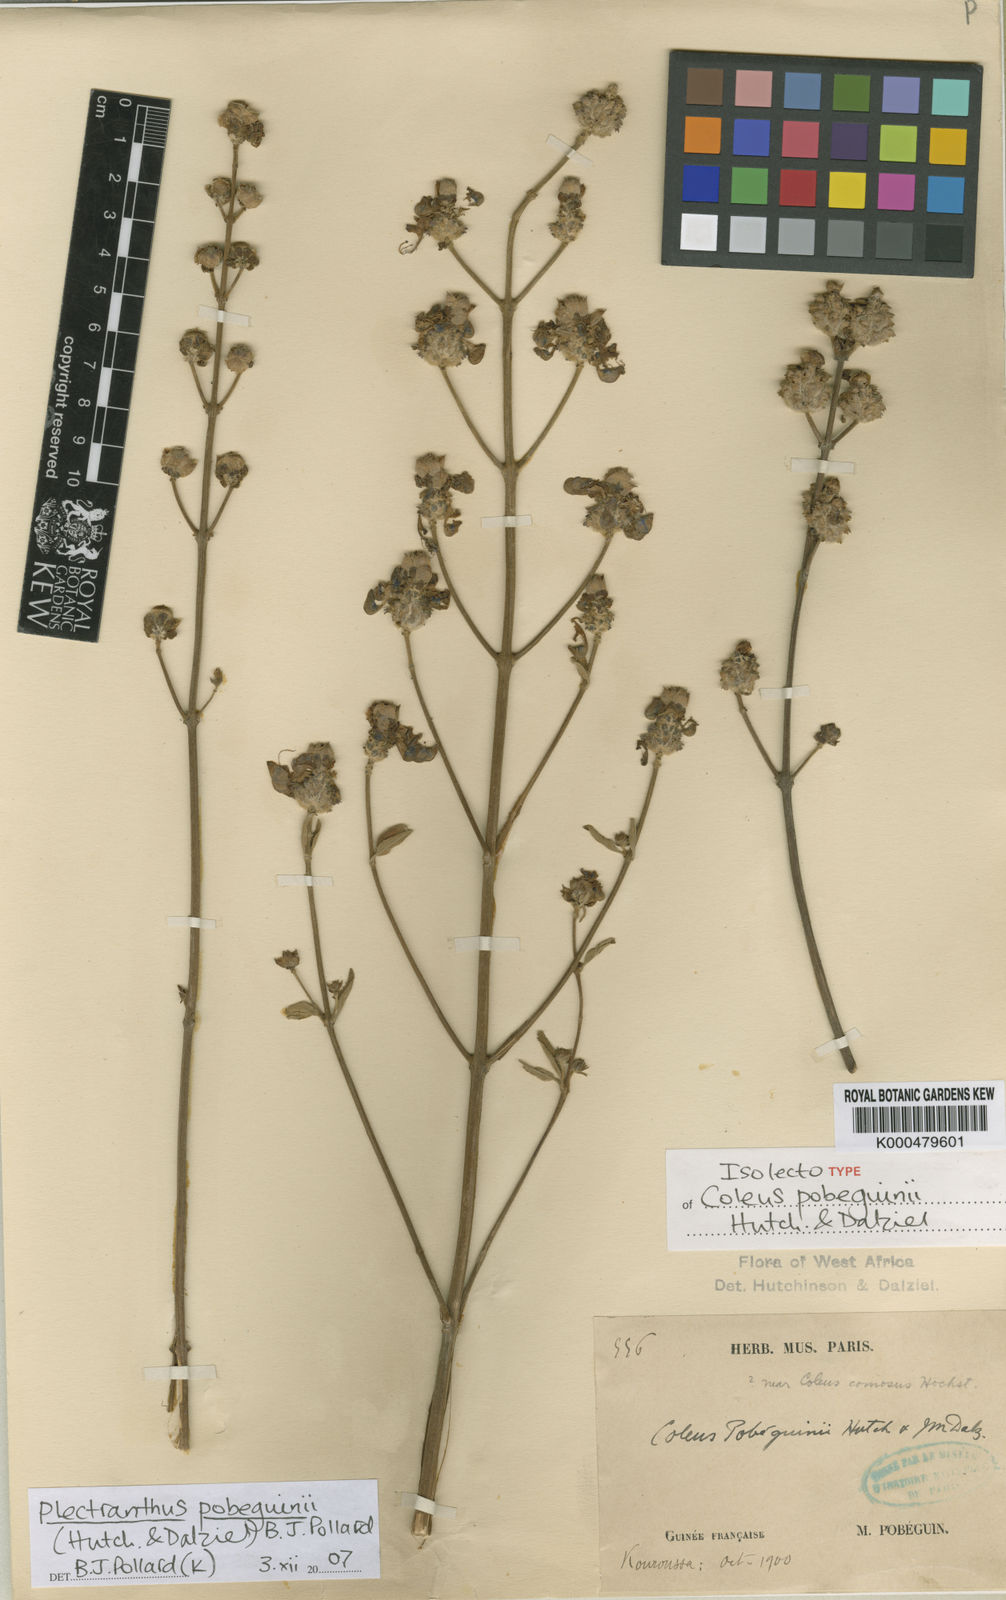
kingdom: Plantae
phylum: Tracheophyta
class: Magnoliopsida
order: Lamiales
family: Lamiaceae
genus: Coleus
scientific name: Coleus pobeguinii
